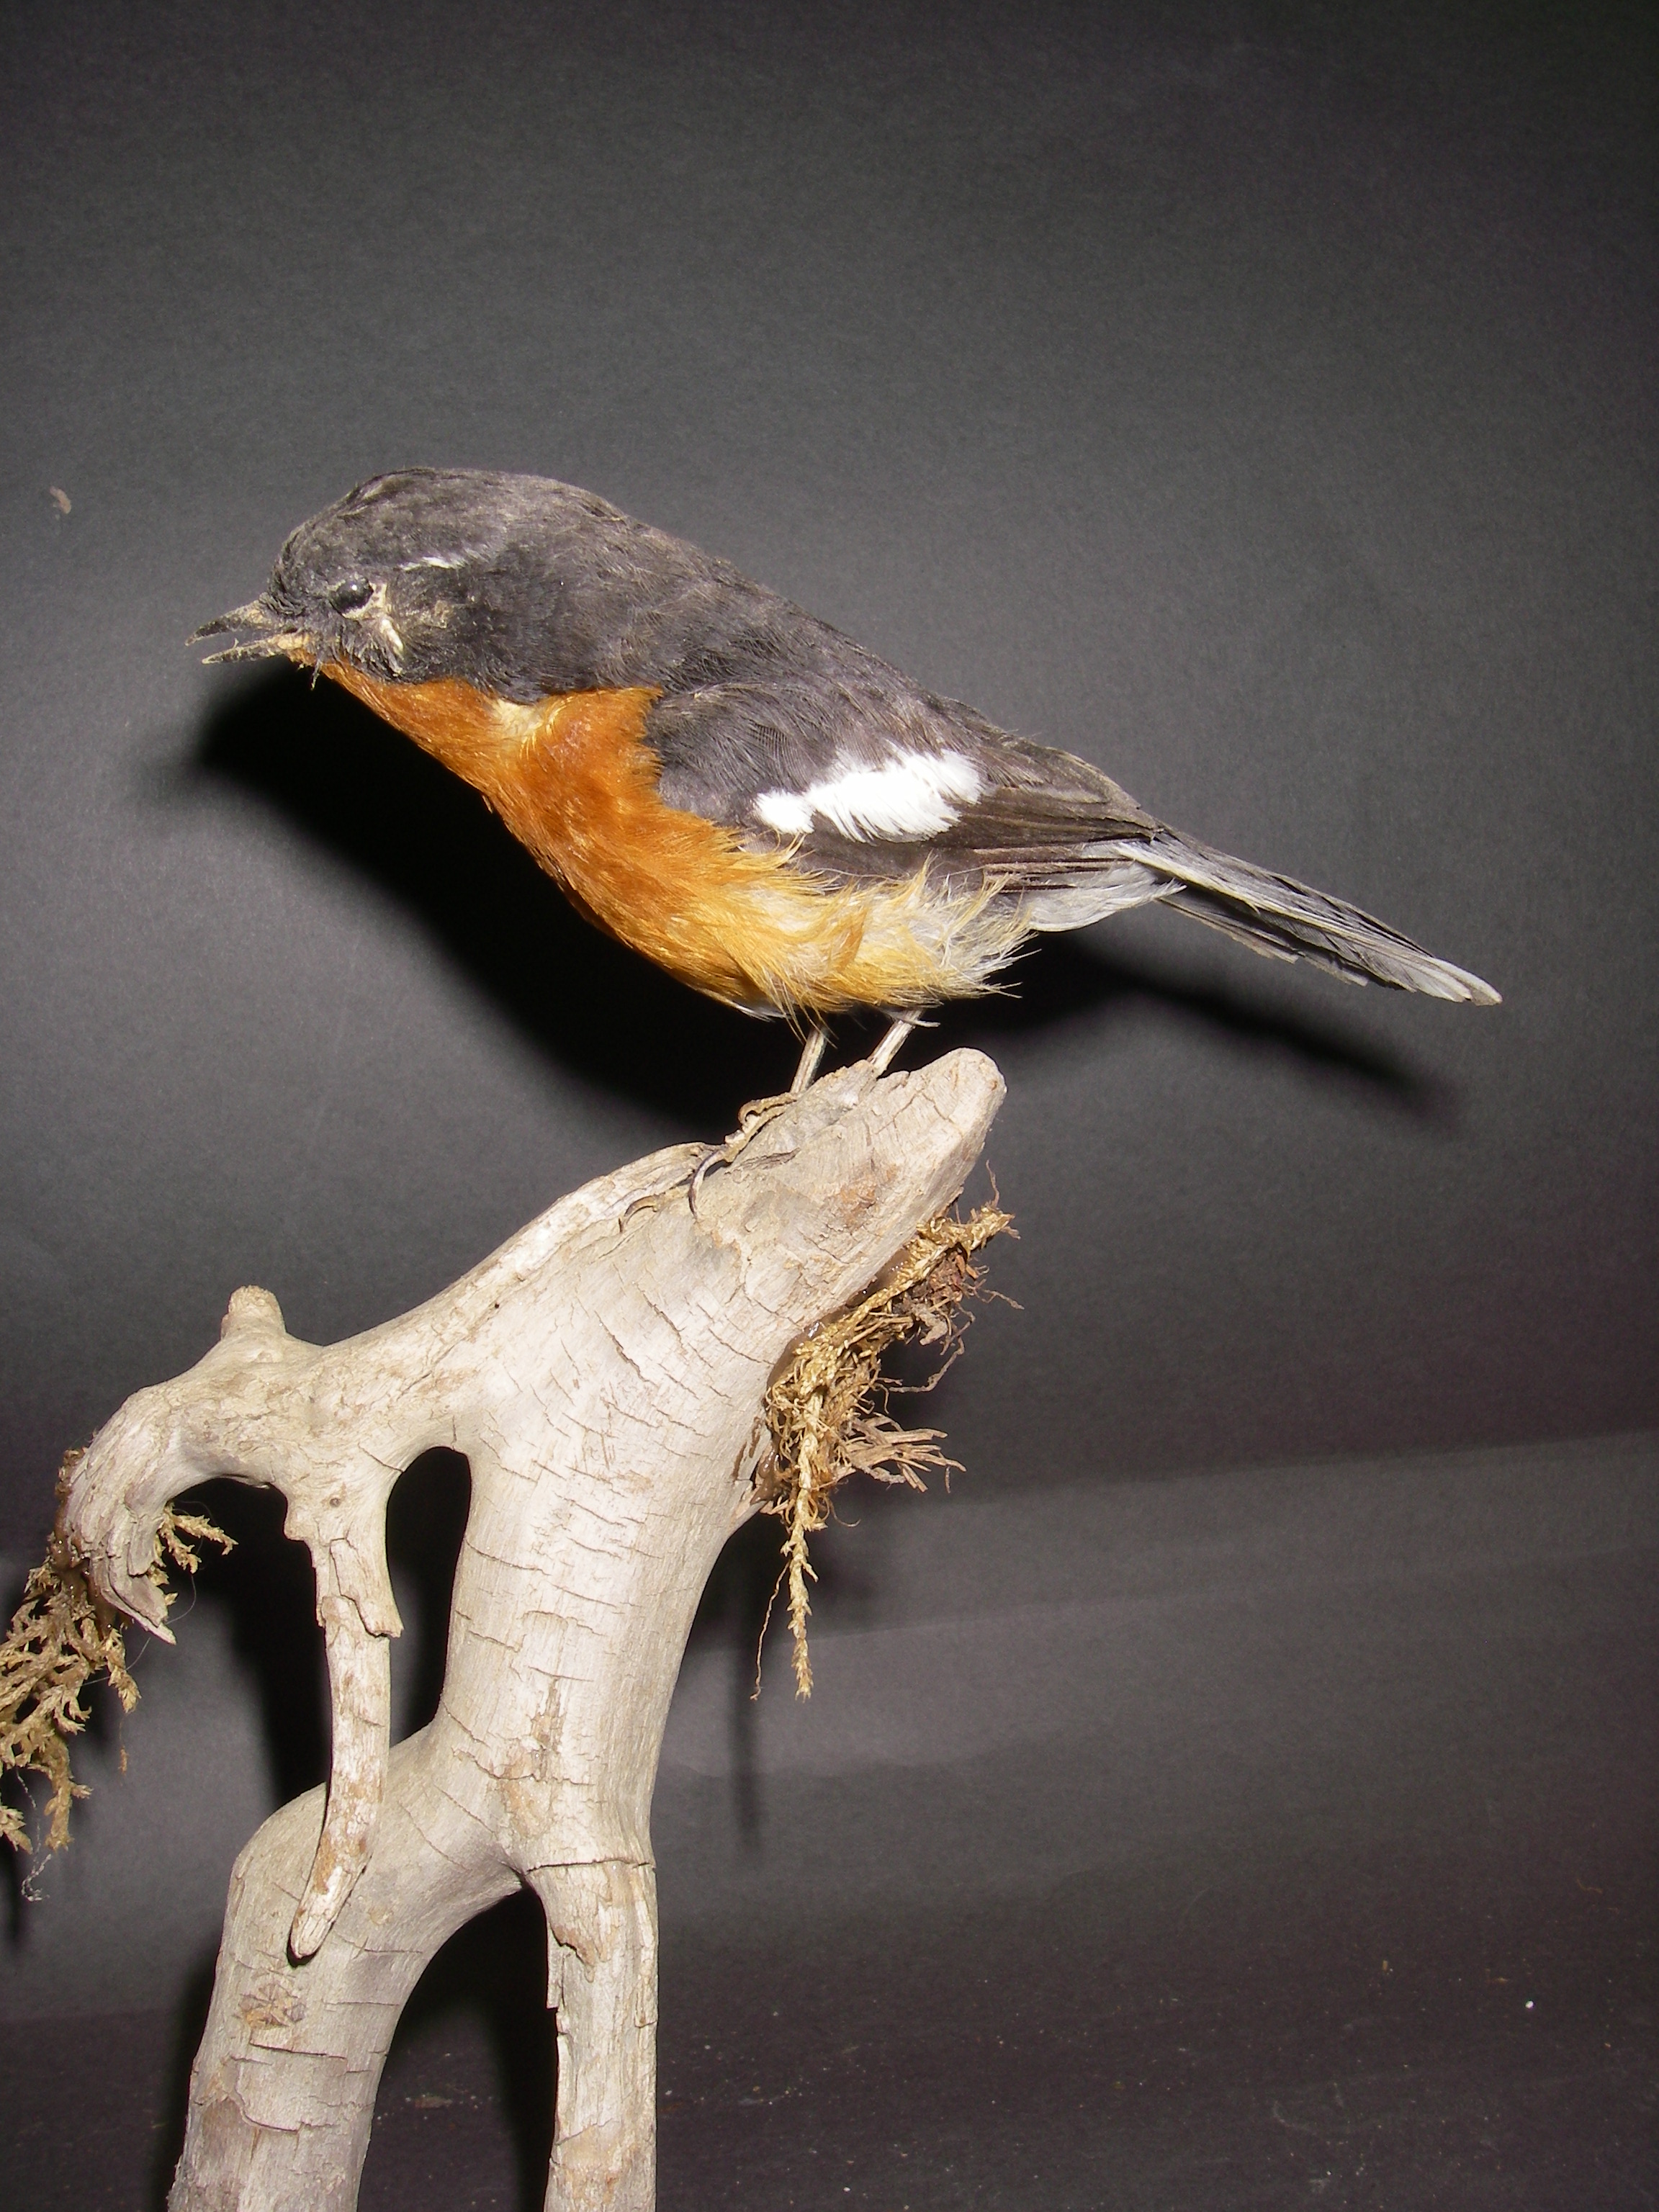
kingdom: Animalia
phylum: Chordata
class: Aves
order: Passeriformes
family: Muscicapidae
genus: Ficedula
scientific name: Ficedula mugimaki
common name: Mugimaki flycatcher
